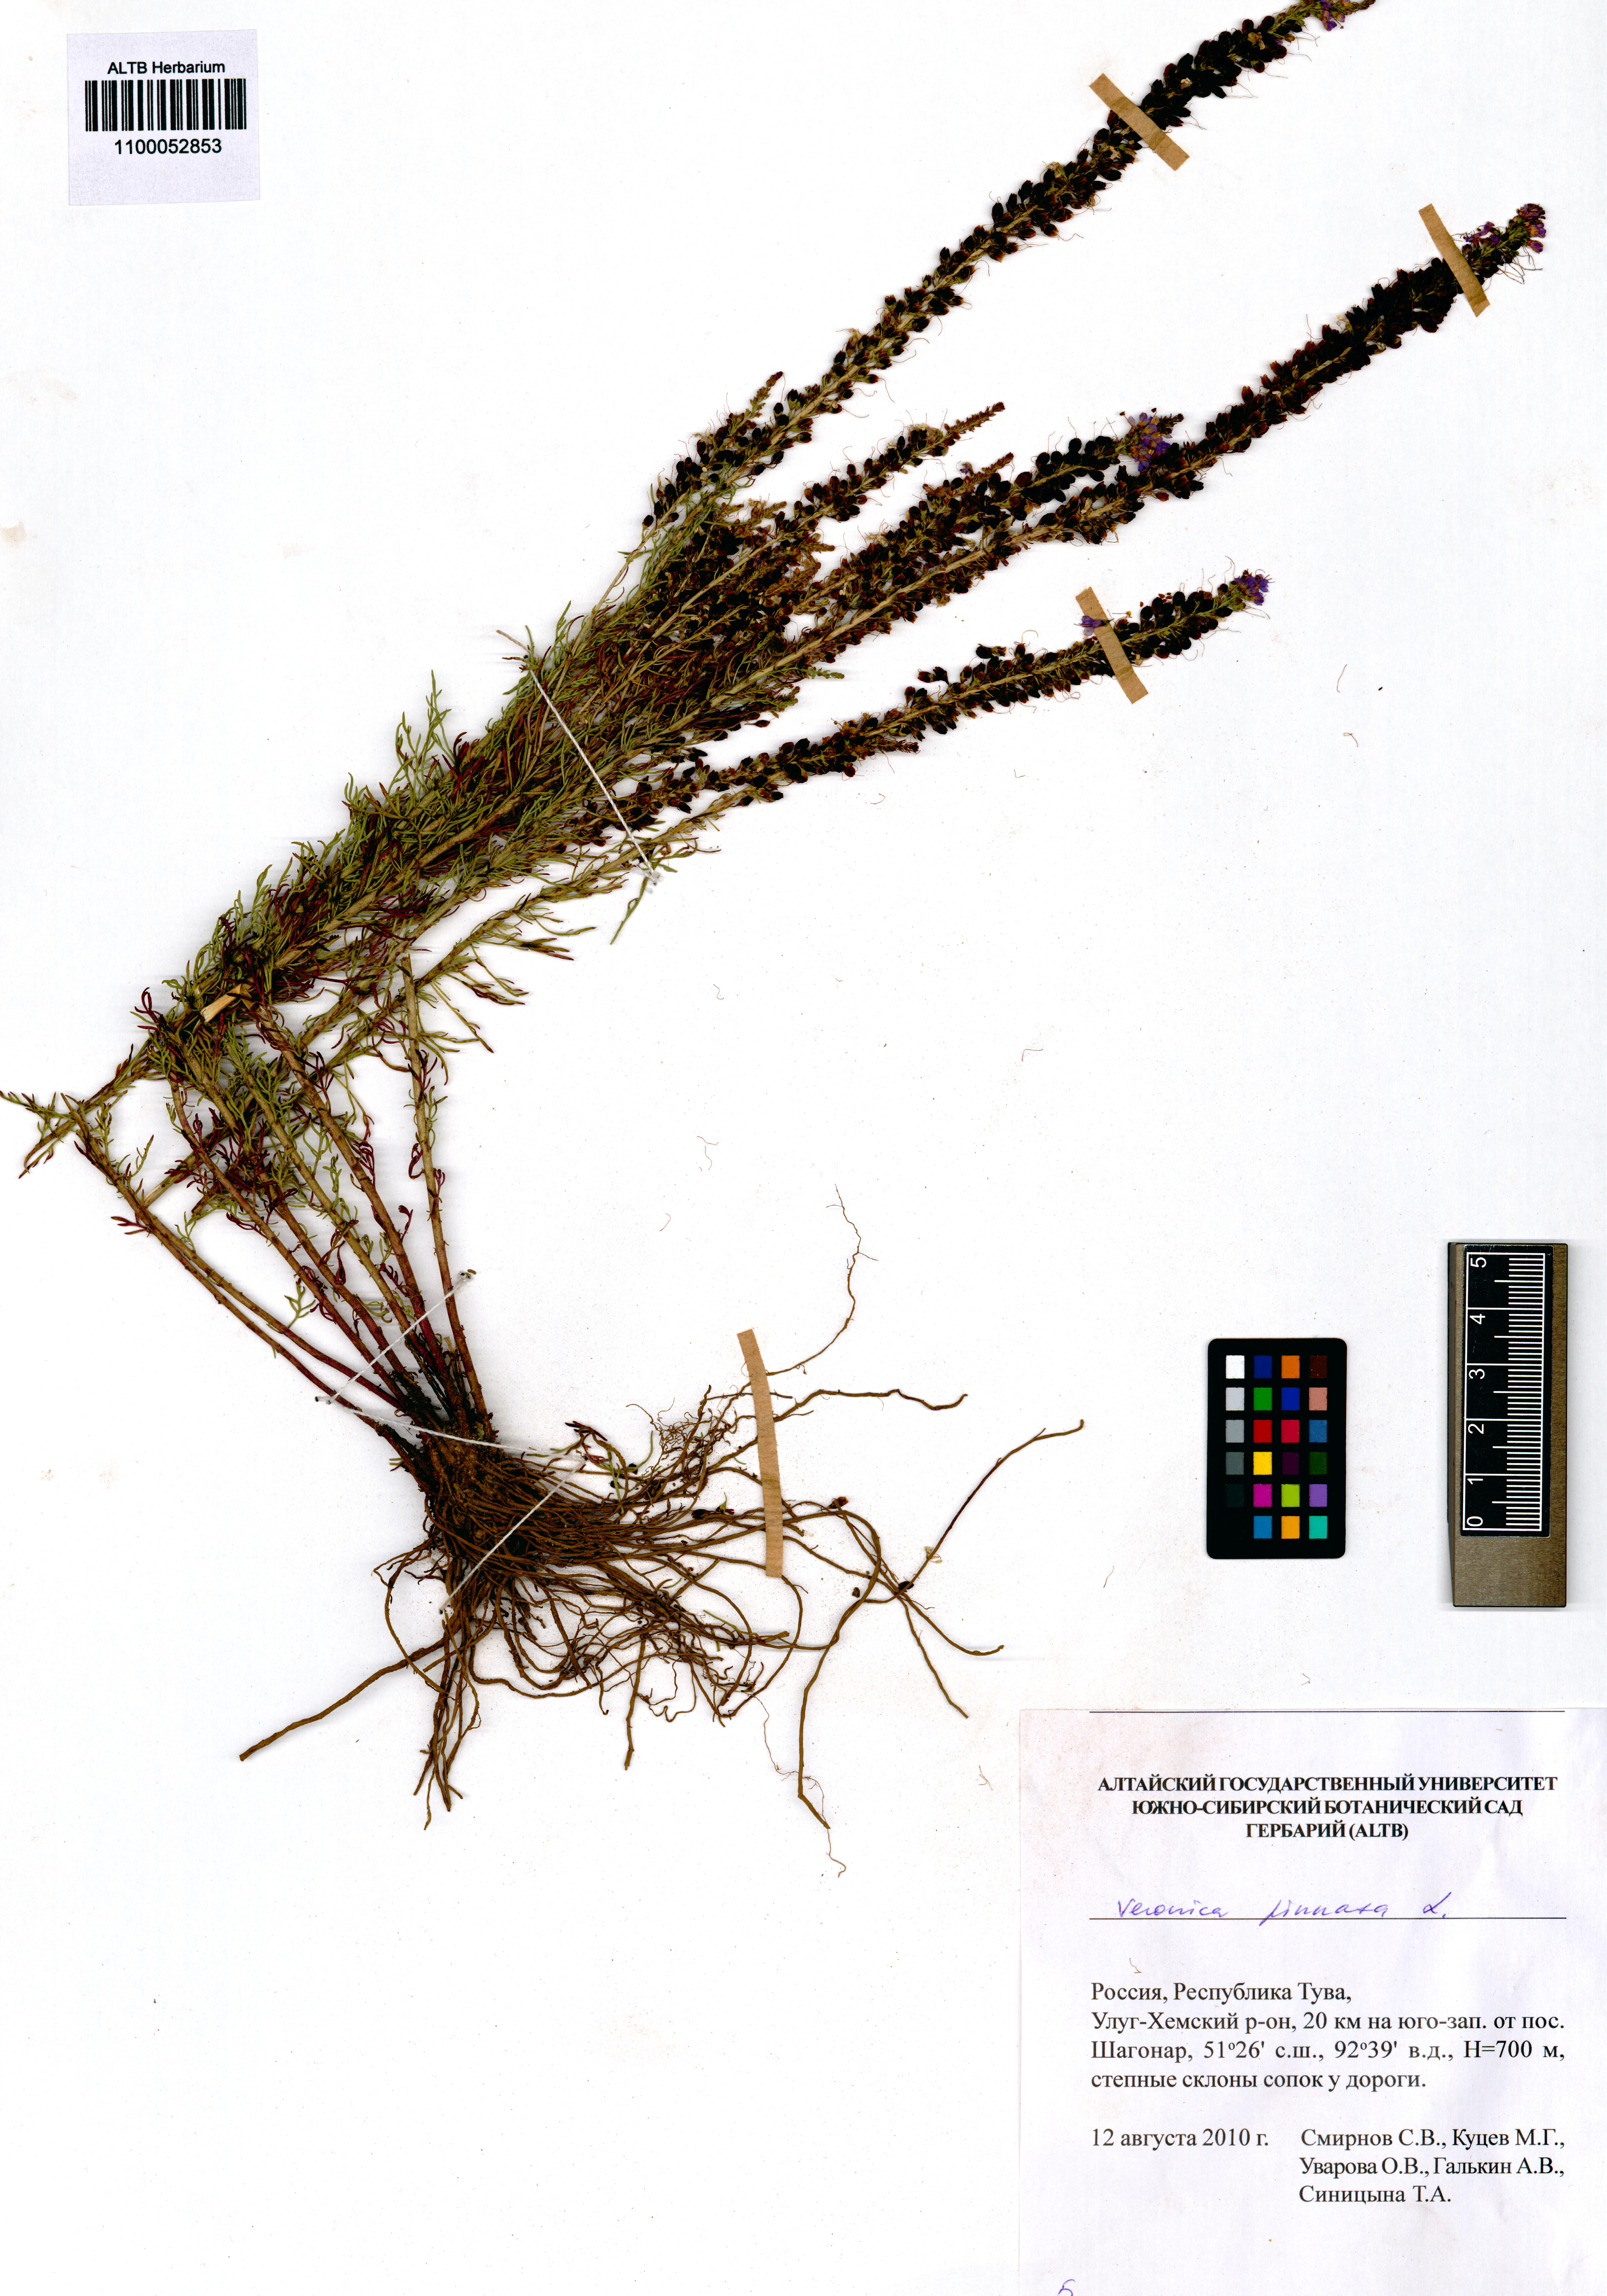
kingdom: Plantae
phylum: Tracheophyta
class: Magnoliopsida
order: Lamiales
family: Plantaginaceae
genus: Veronica
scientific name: Veronica pinnata
